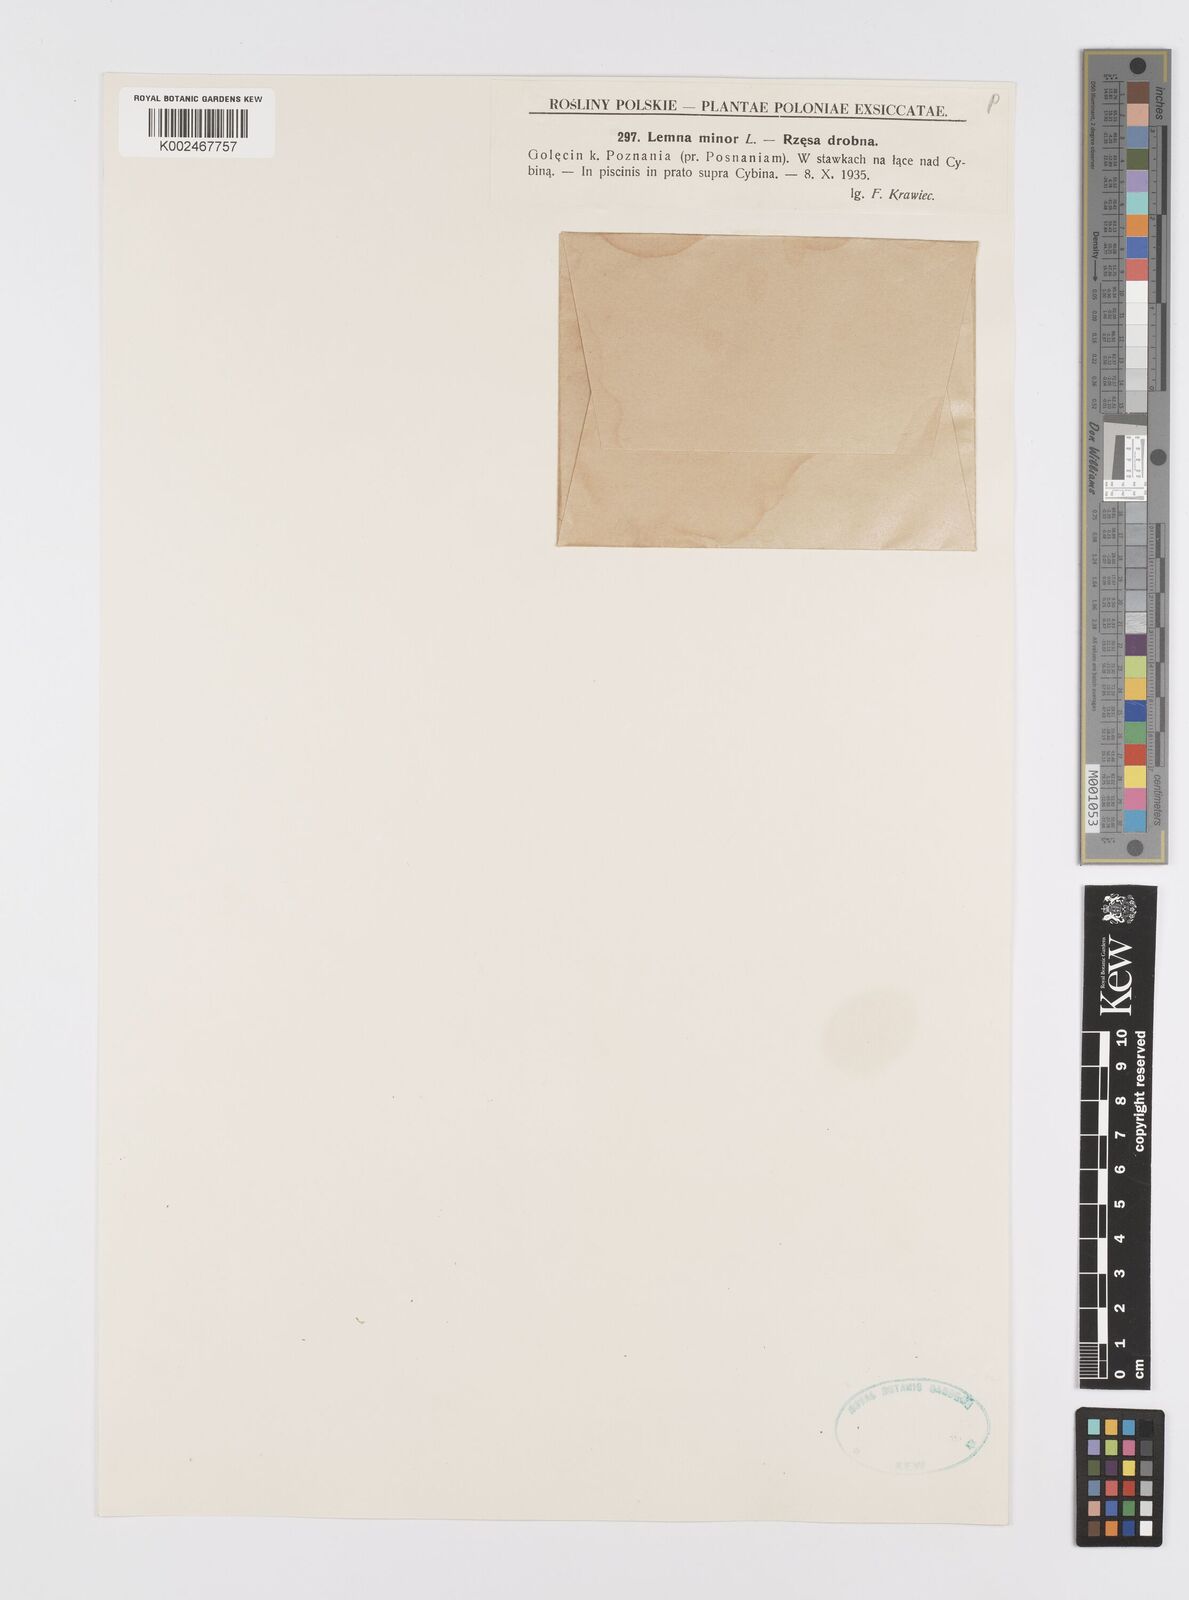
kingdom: Plantae
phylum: Tracheophyta
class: Liliopsida
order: Alismatales
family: Araceae
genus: Lemna
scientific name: Lemna minor
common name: Common duckweed
